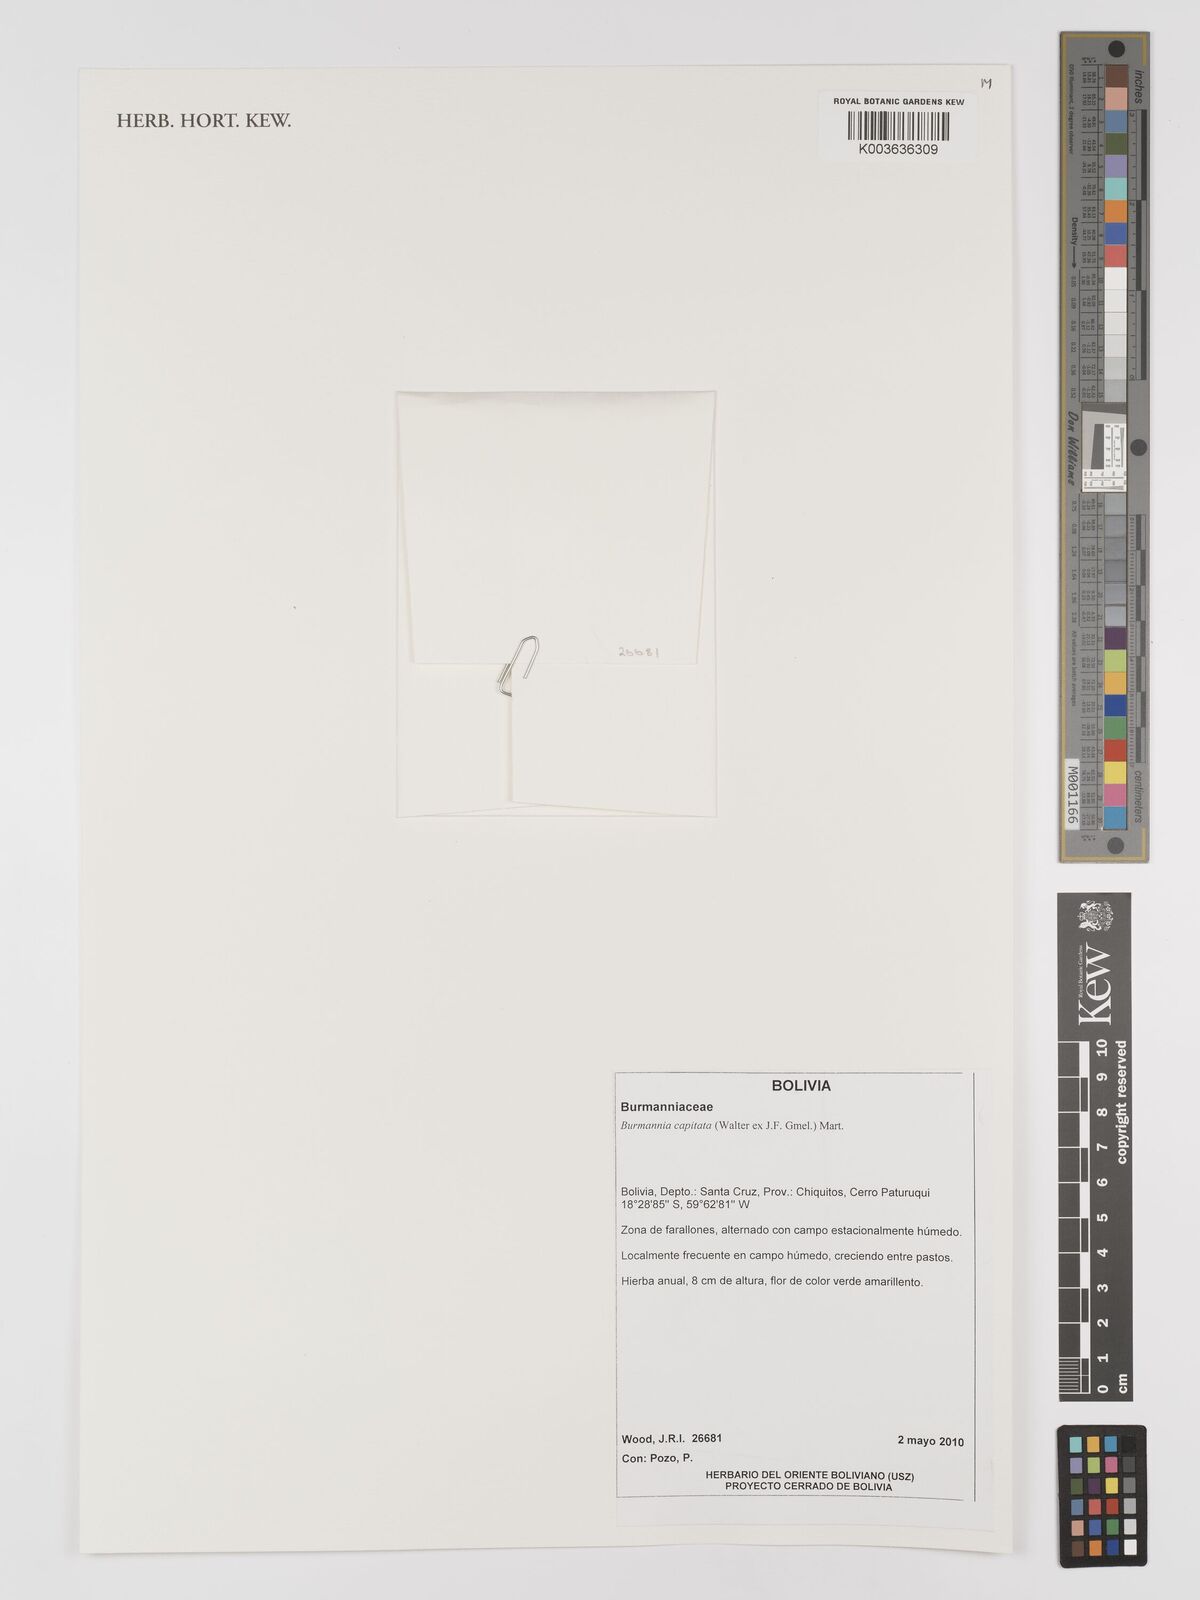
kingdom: Plantae
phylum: Tracheophyta
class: Liliopsida
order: Dioscoreales
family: Burmanniaceae
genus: Burmannia
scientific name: Burmannia capitata
